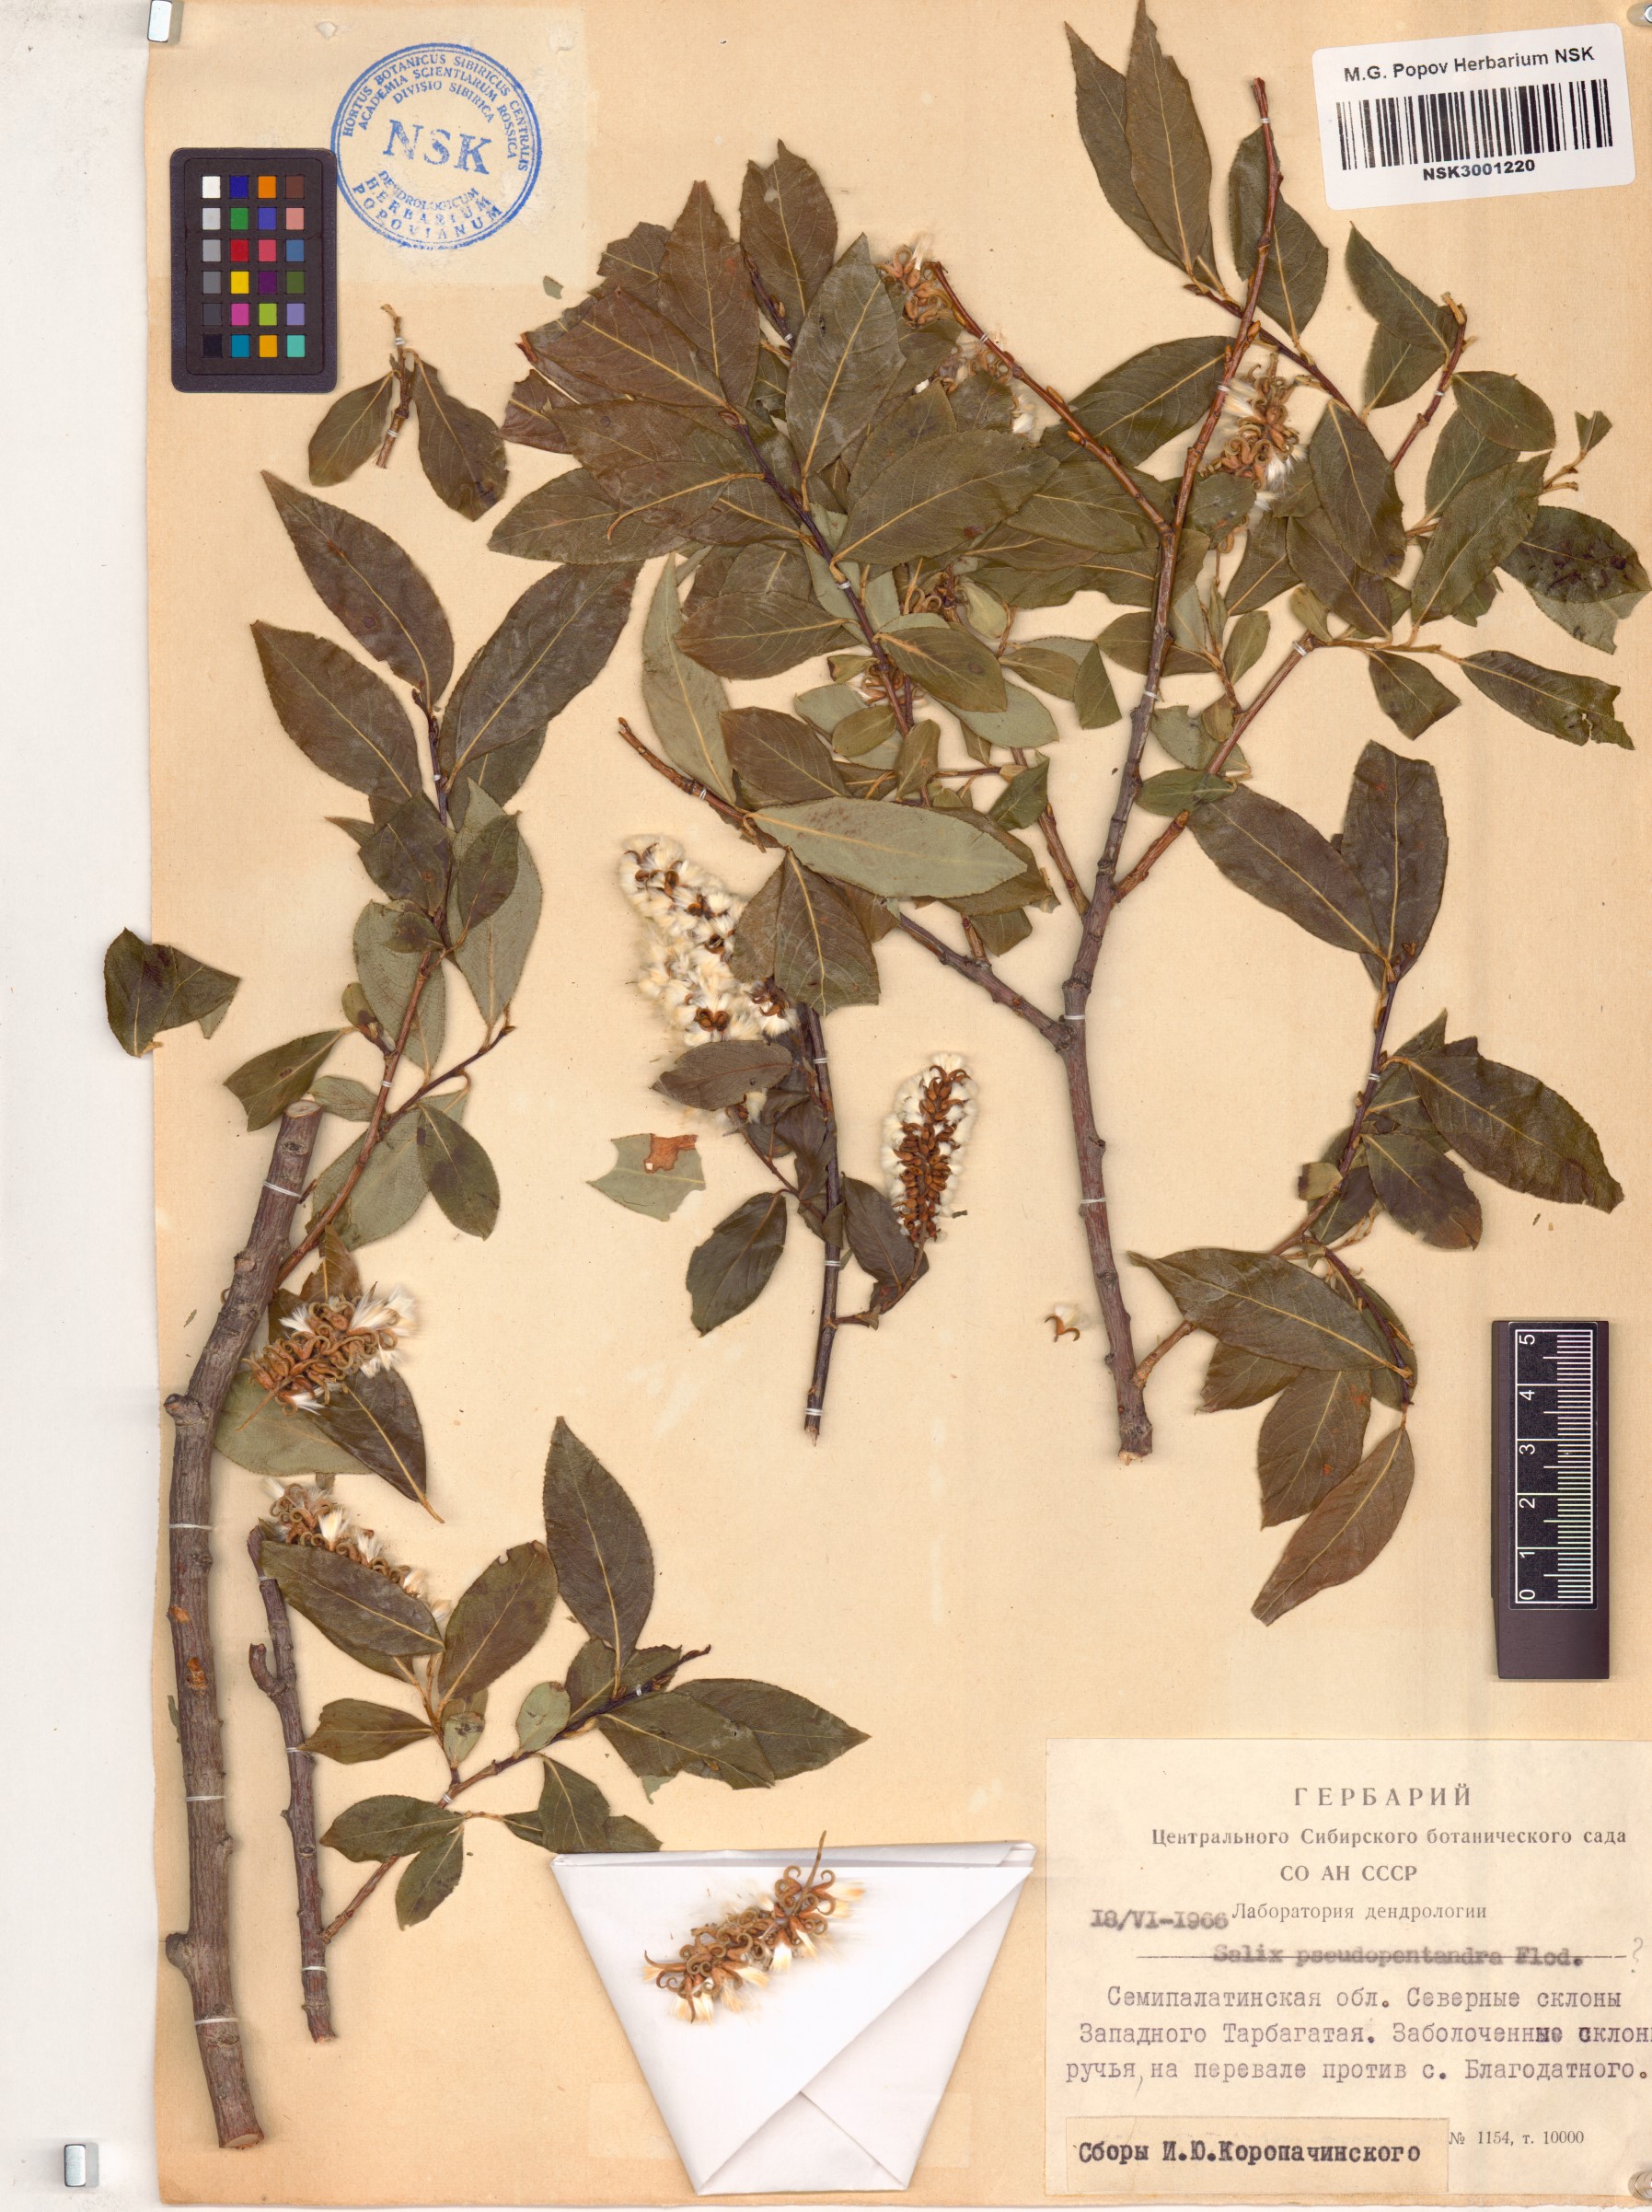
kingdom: Plantae
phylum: Tracheophyta
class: Magnoliopsida
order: Malpighiales
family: Salicaceae
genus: Salix
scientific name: Salix pseudopentandra
